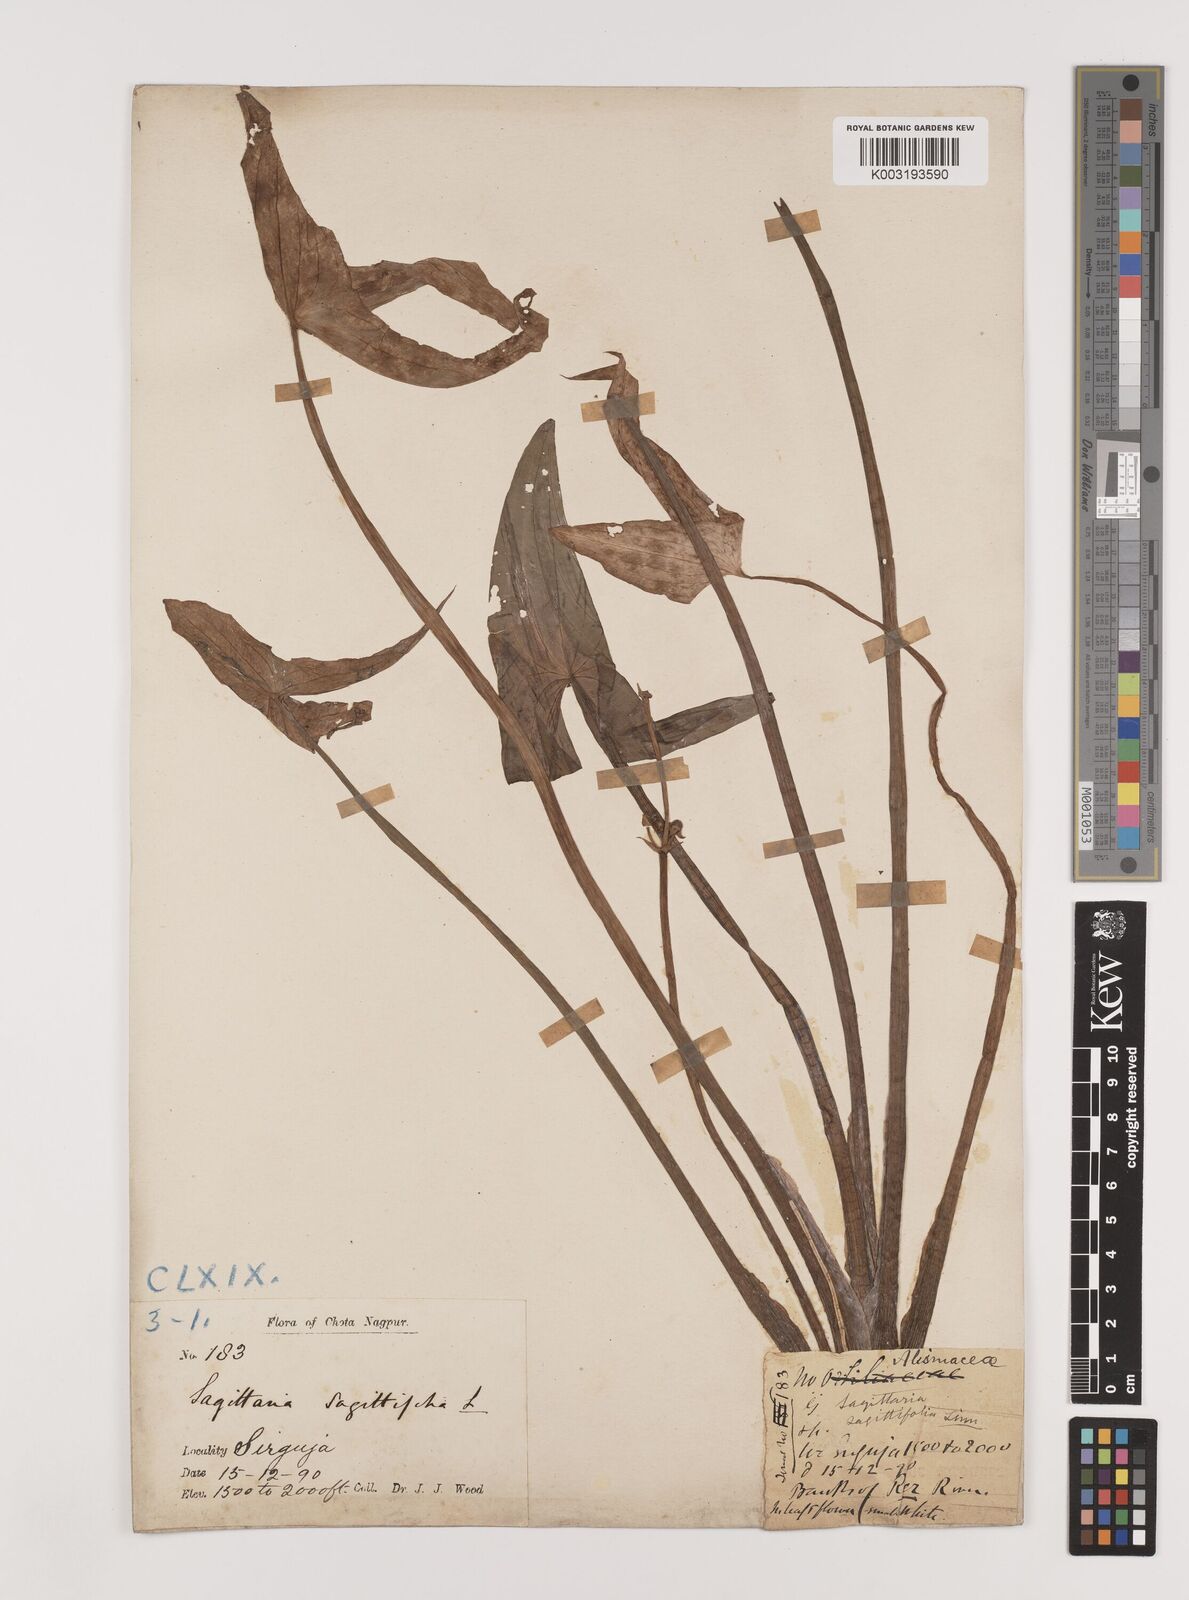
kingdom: Plantae
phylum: Tracheophyta
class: Liliopsida
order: Alismatales
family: Alismataceae
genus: Sagittaria
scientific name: Sagittaria sagittifolia
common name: Arrowhead
